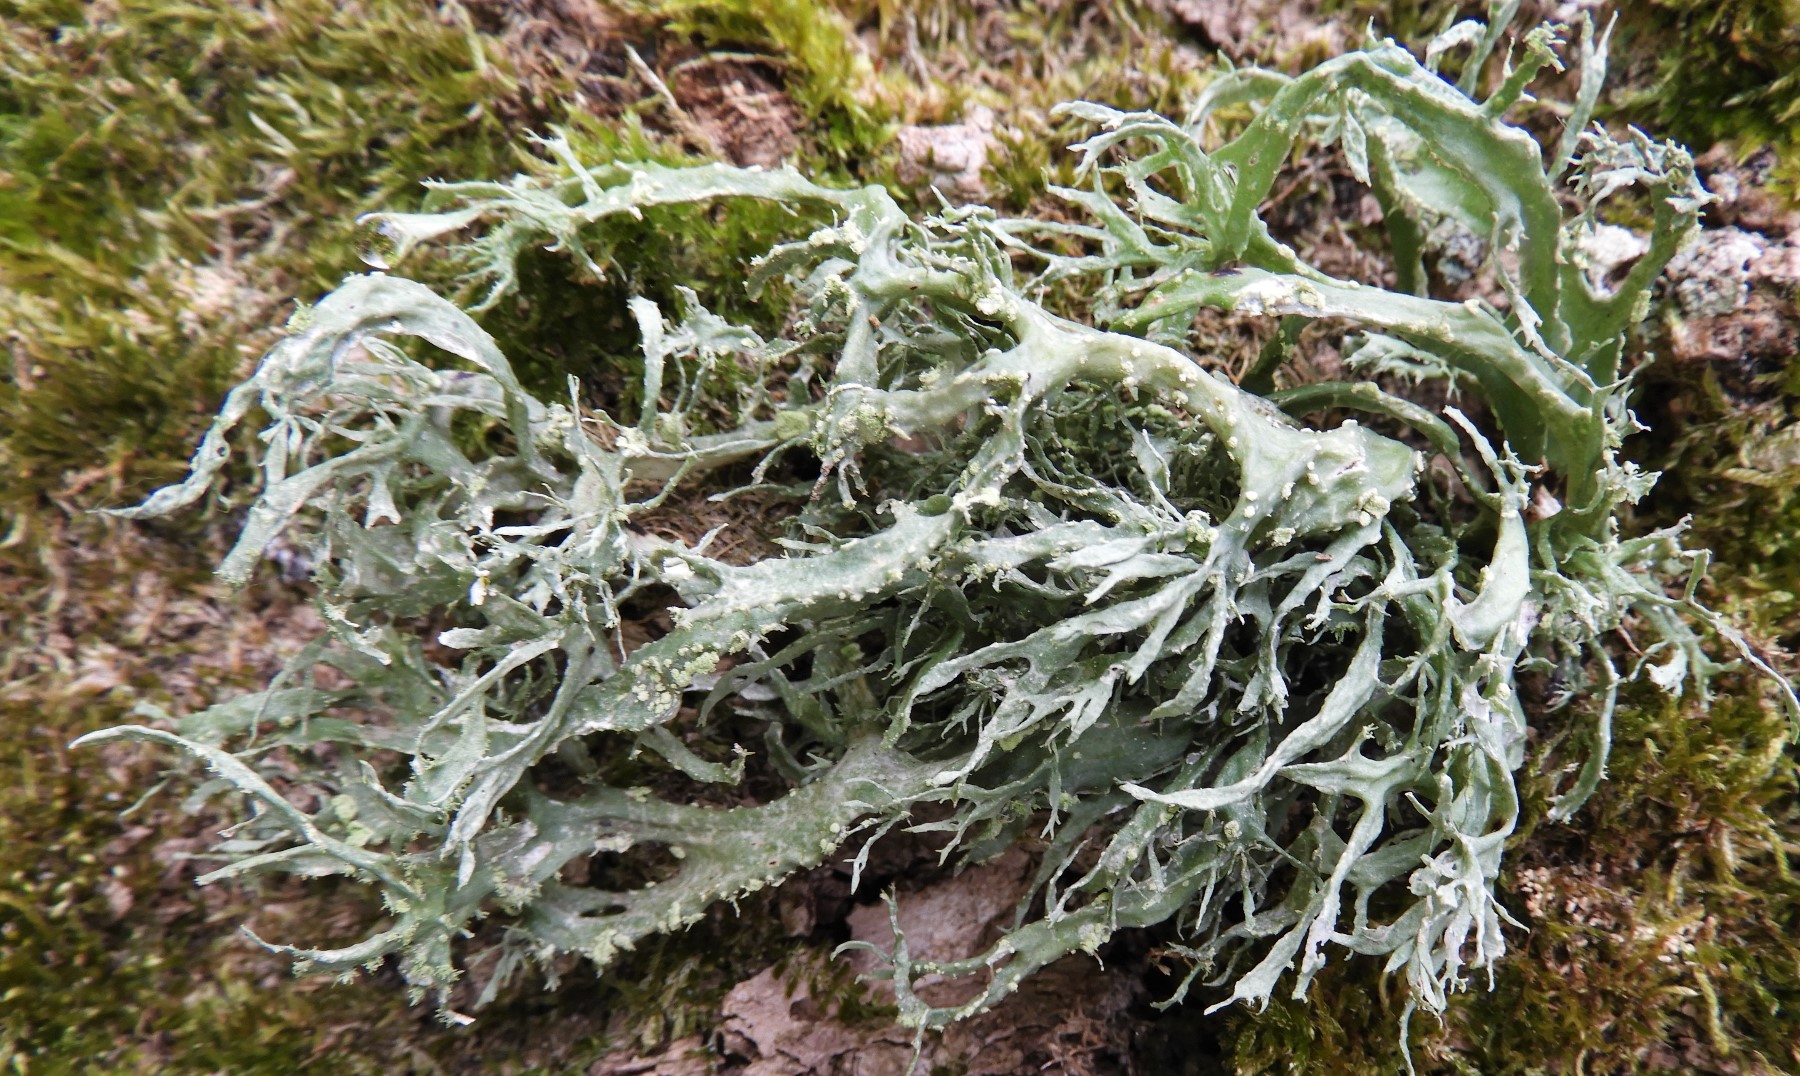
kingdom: Fungi
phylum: Ascomycota
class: Lecanoromycetes
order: Lecanorales
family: Ramalinaceae
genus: Ramalina
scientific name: Ramalina farinacea
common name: melet grenlav
